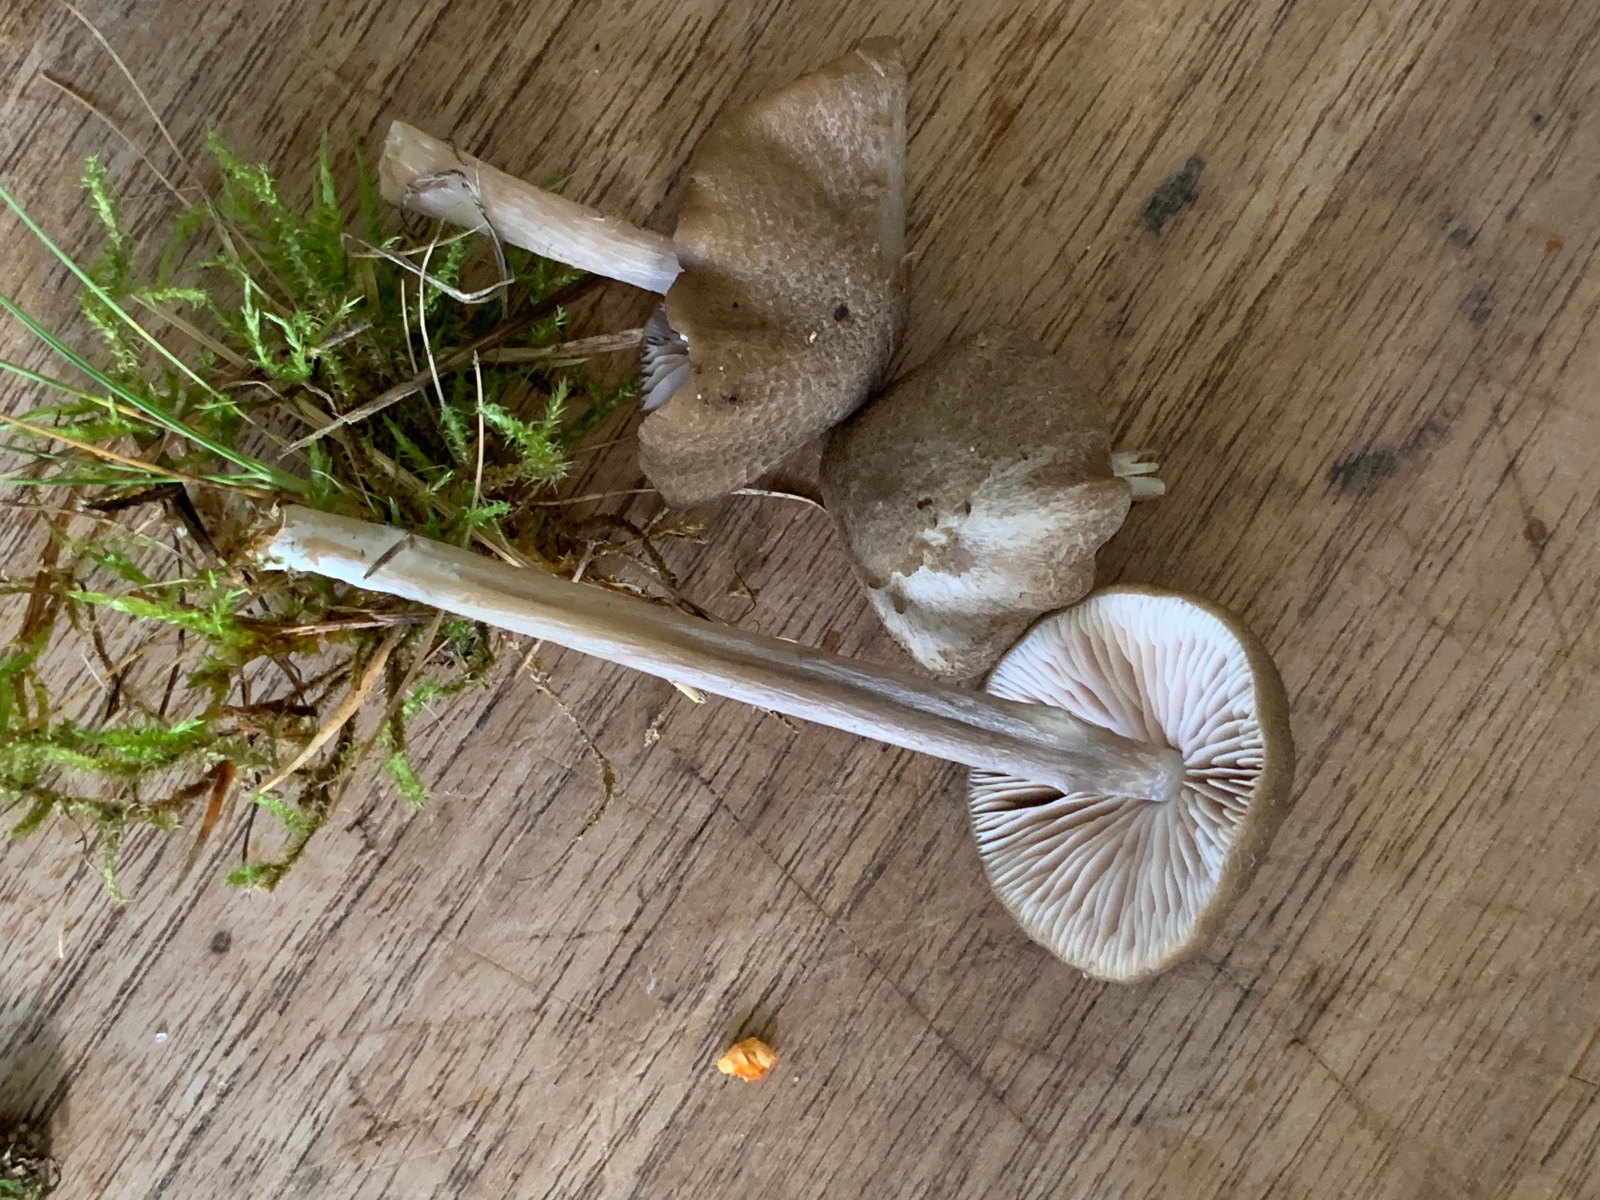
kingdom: Fungi
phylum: Basidiomycota
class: Agaricomycetes
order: Agaricales
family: Entolomataceae
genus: Entoloma
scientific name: Entoloma griseocyaneum
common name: gråblå rødblad
